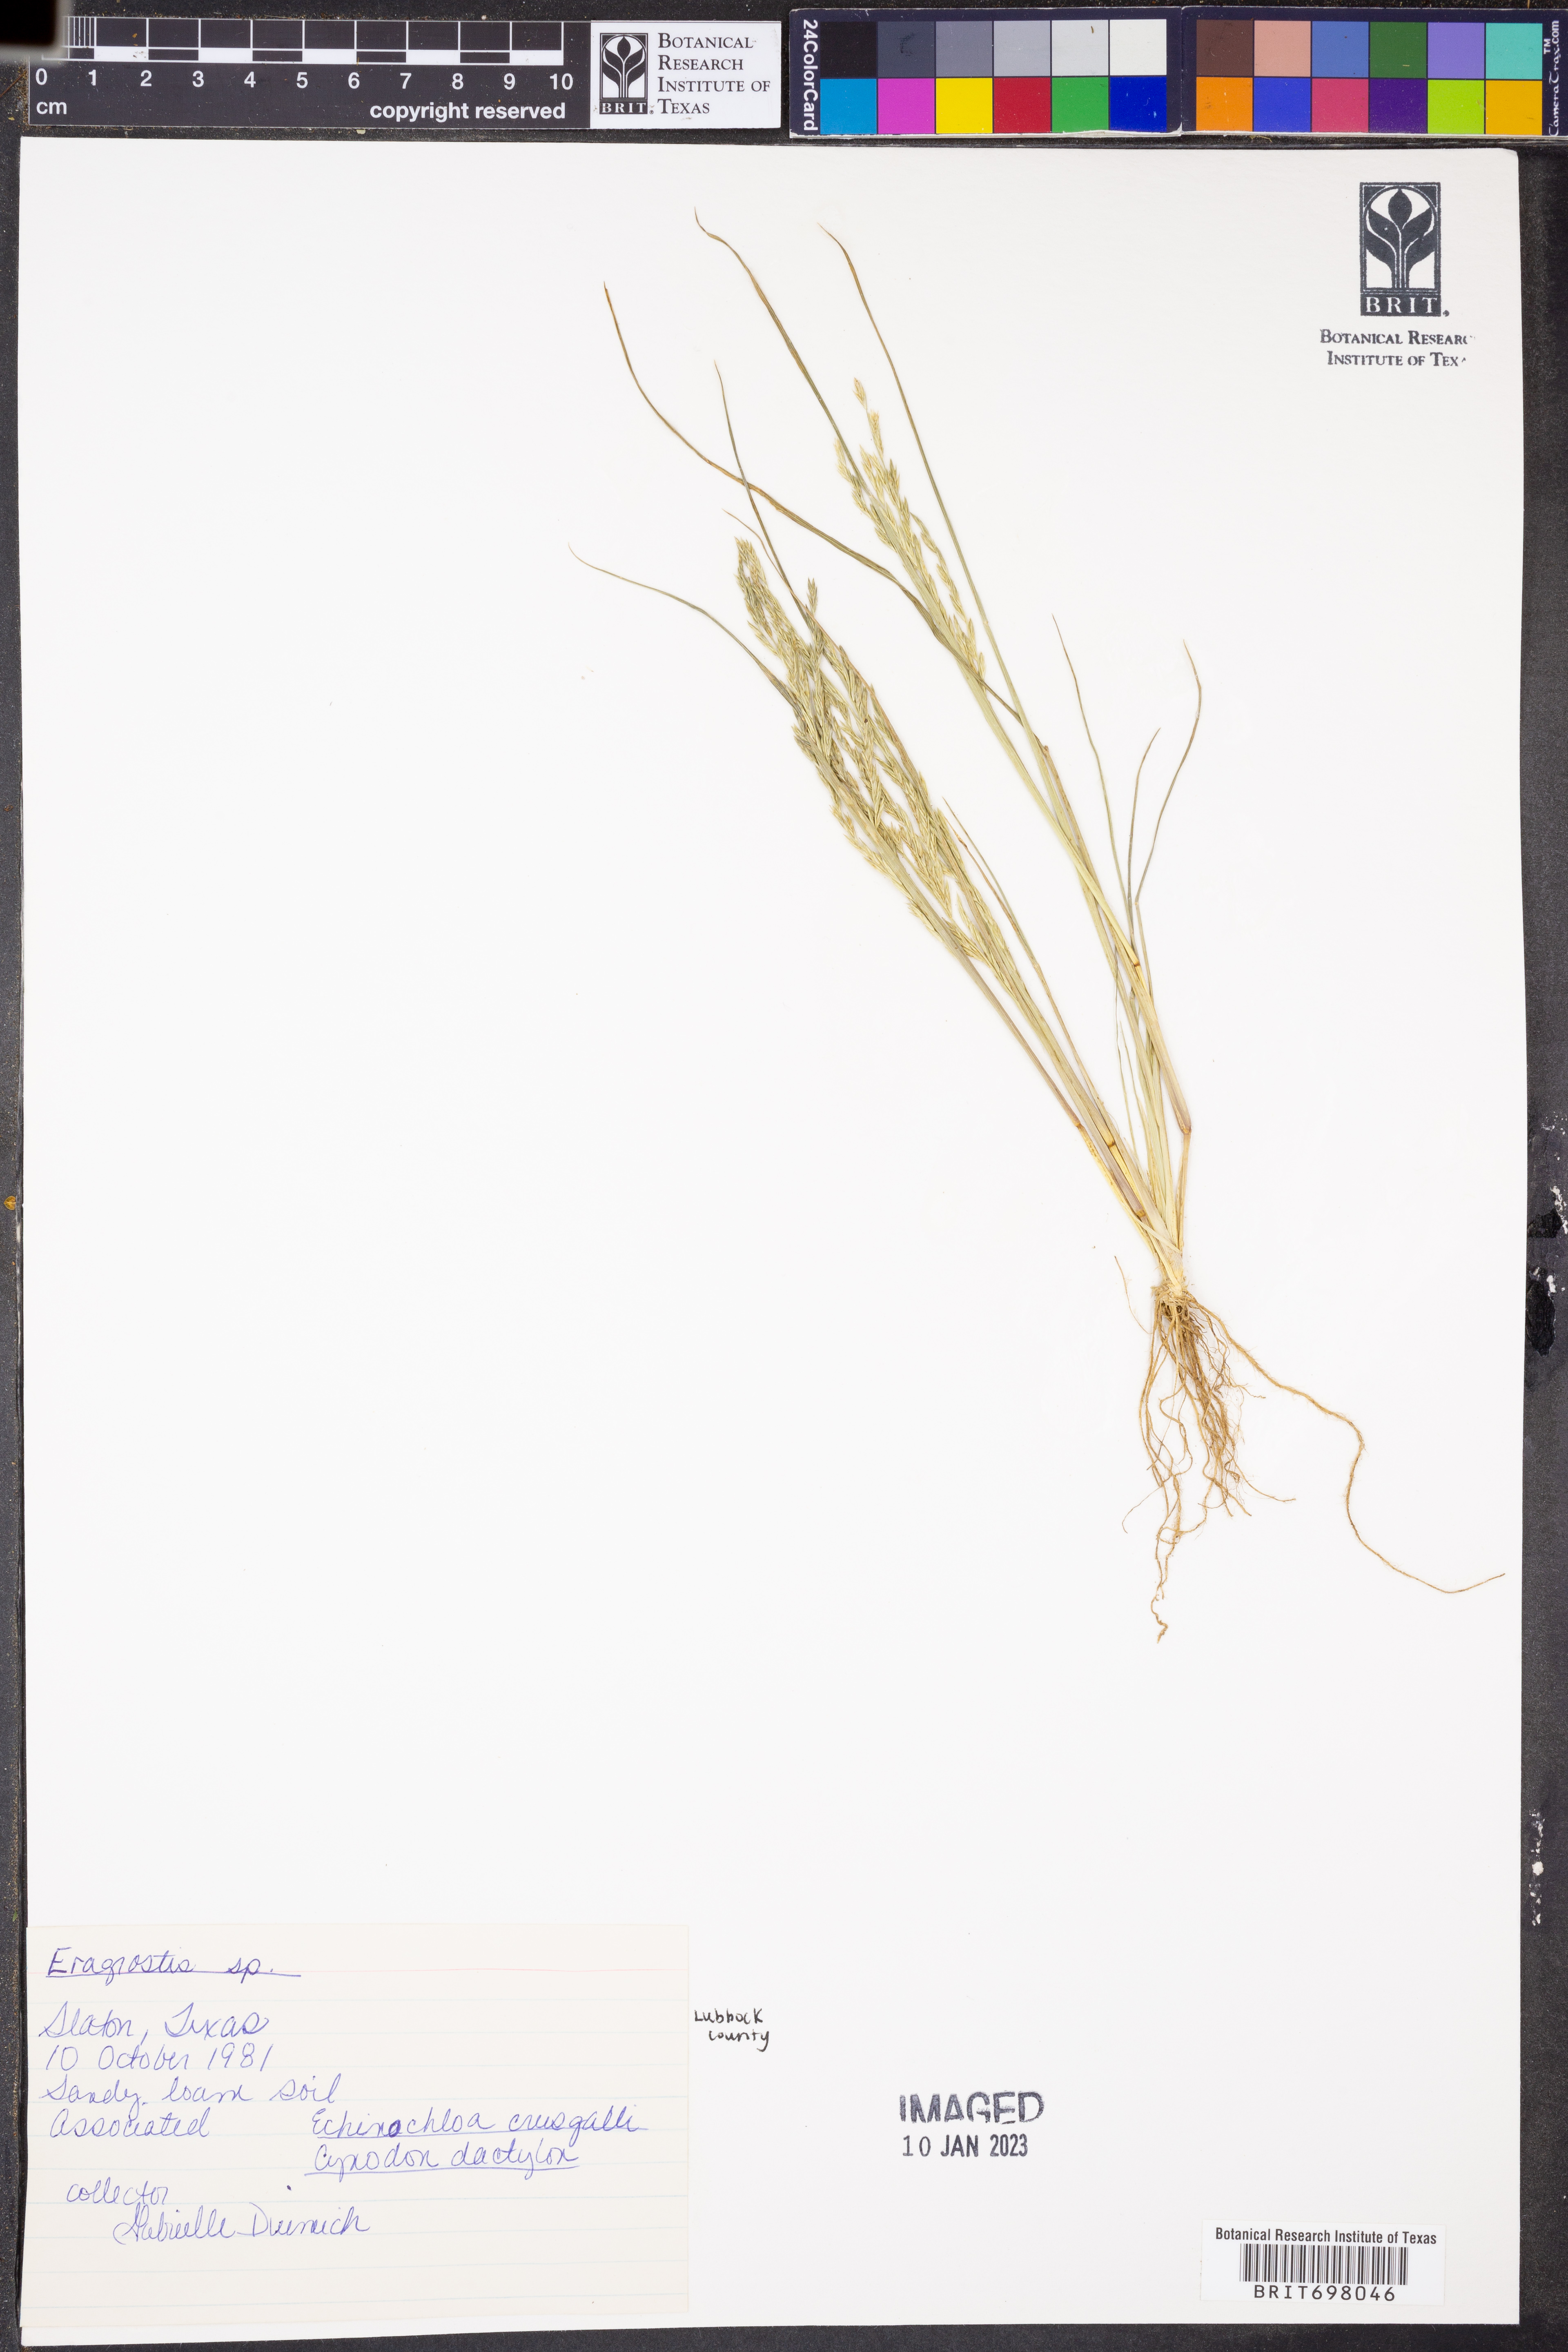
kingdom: Plantae
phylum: Tracheophyta
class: Liliopsida
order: Poales
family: Poaceae
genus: Eragrostis
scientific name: Eragrostis
